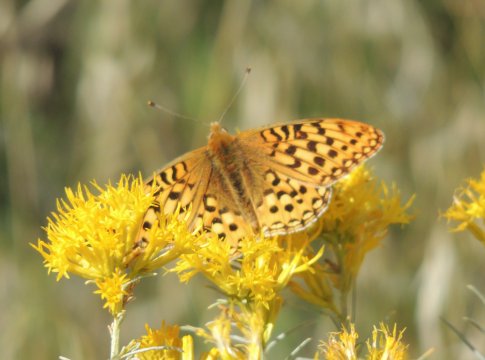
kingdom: Animalia
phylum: Arthropoda
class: Insecta
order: Lepidoptera
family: Nymphalidae
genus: Speyeria
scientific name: Speyeria coronis
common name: Coronis Fritillary
